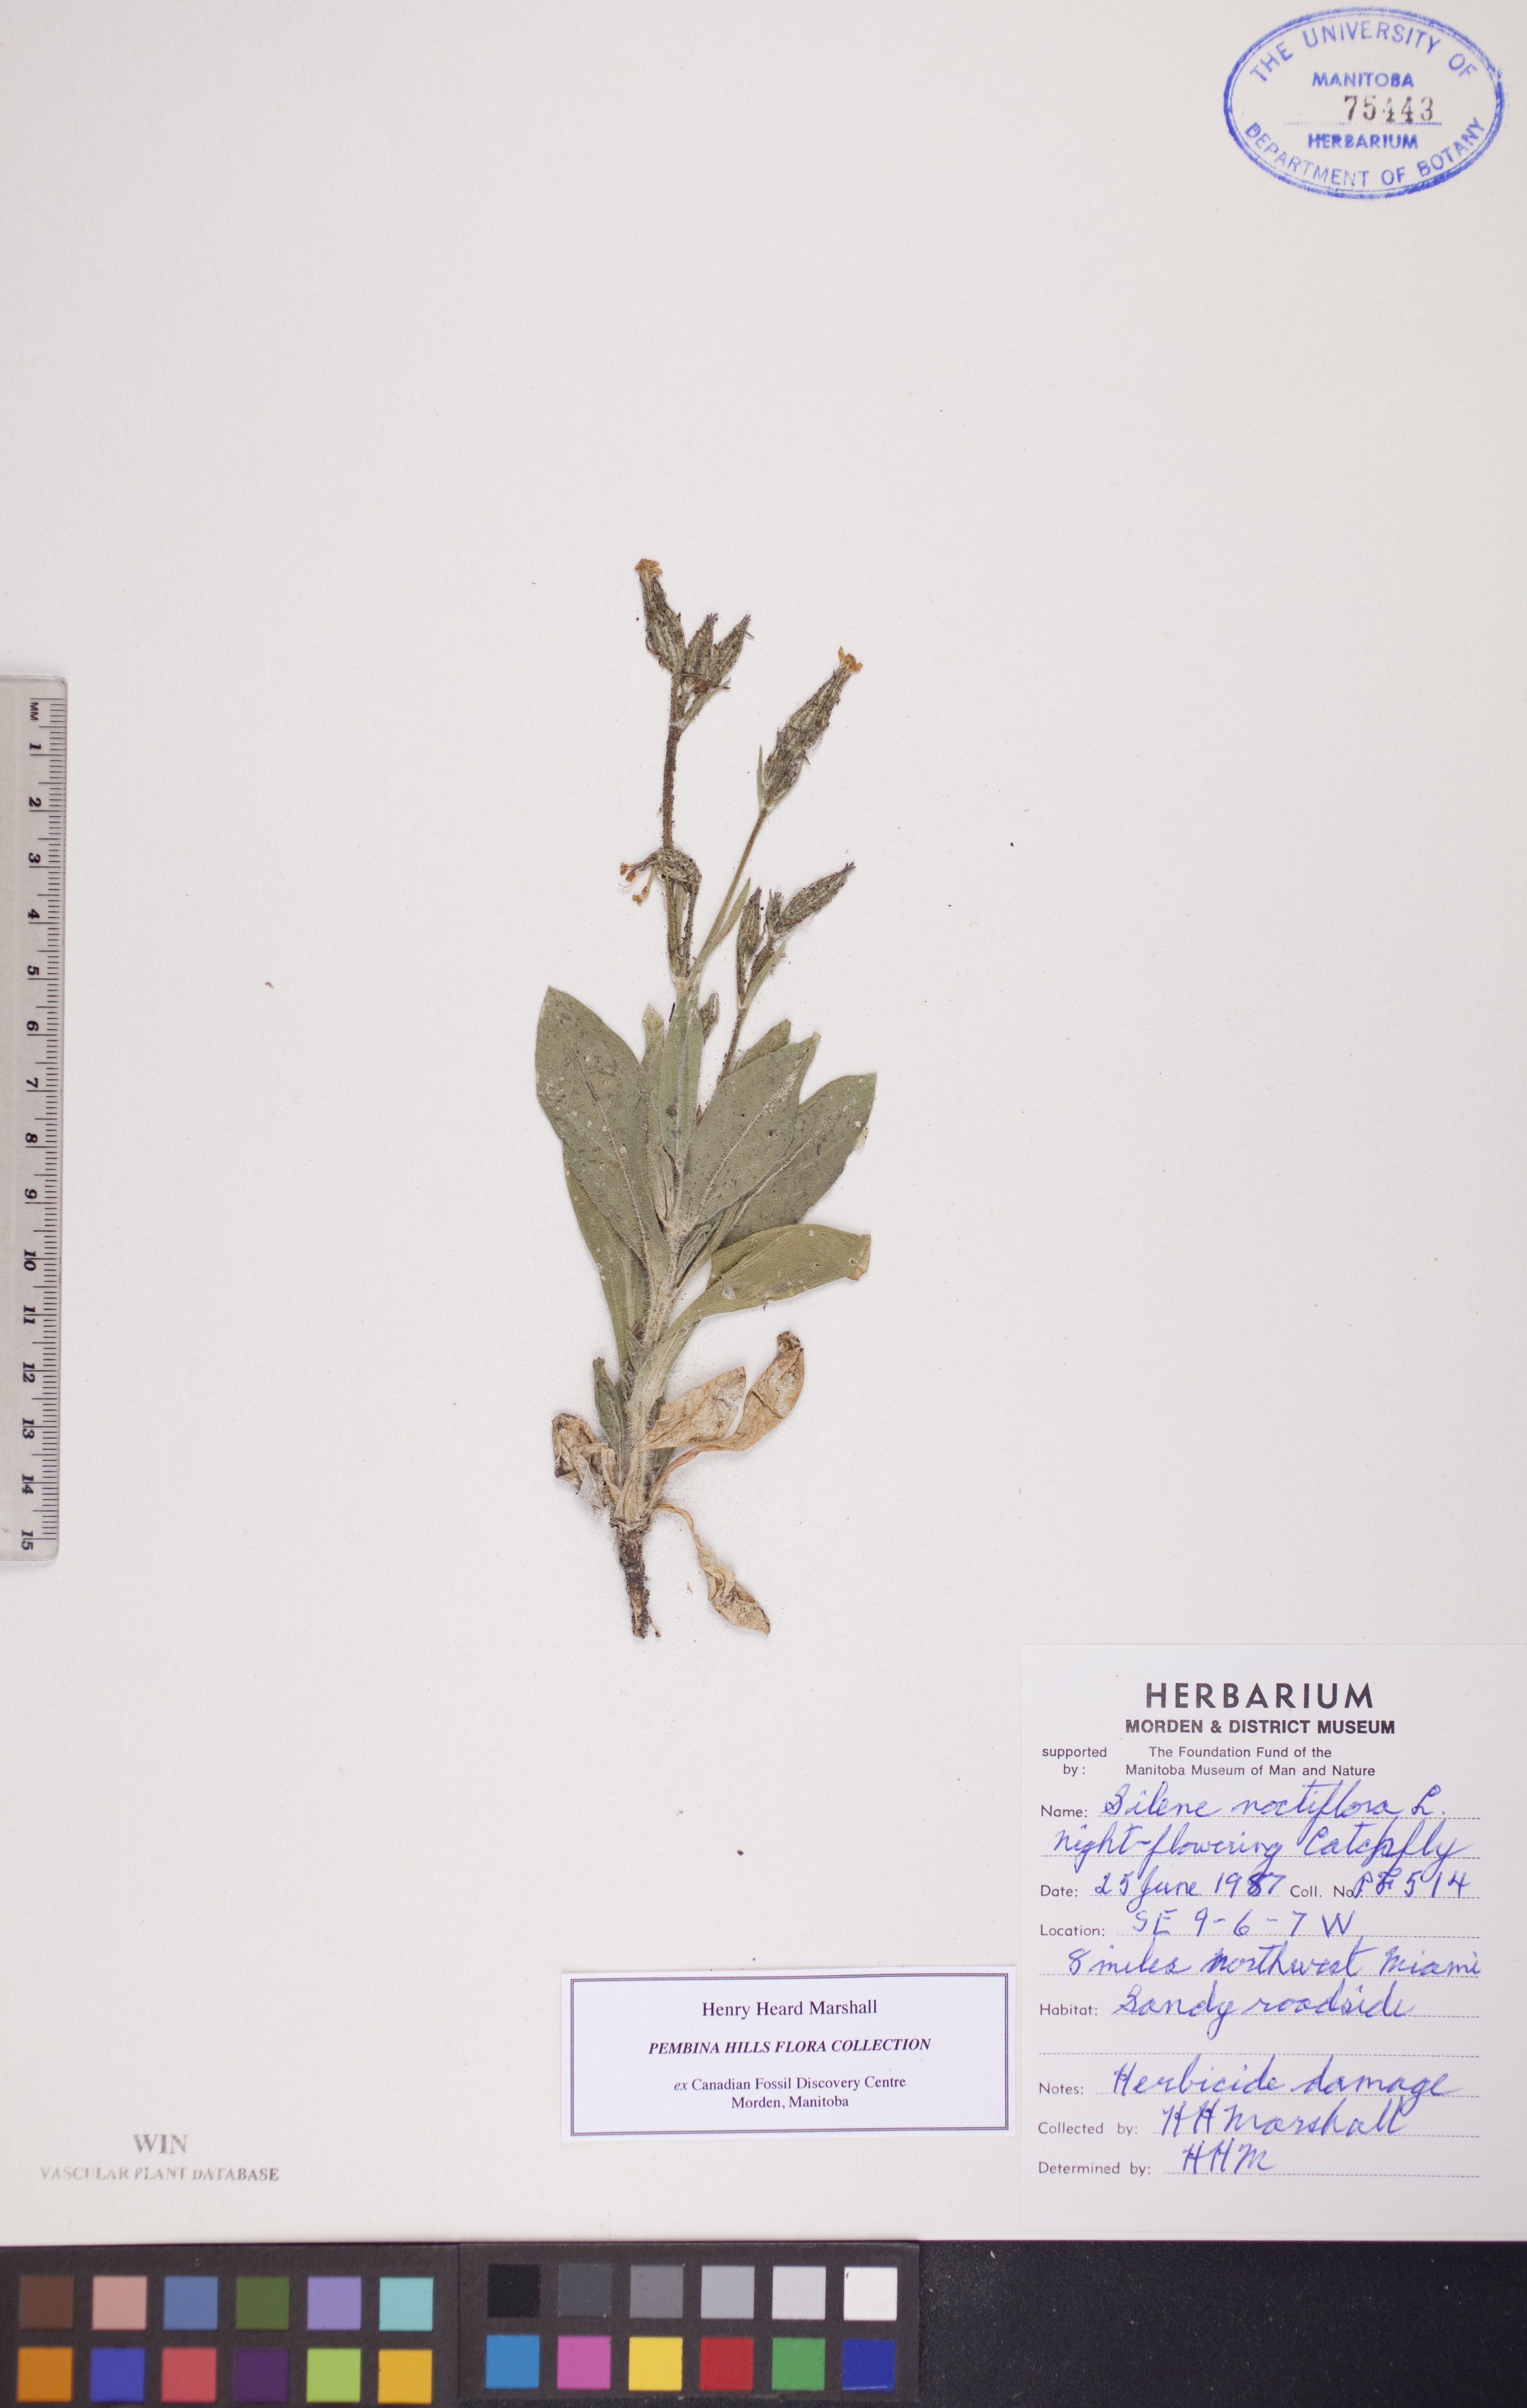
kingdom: Plantae
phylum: Tracheophyta
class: Magnoliopsida
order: Caryophyllales
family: Caryophyllaceae
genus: Silene
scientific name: Silene noctiflora
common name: Night-flowering catchfly
